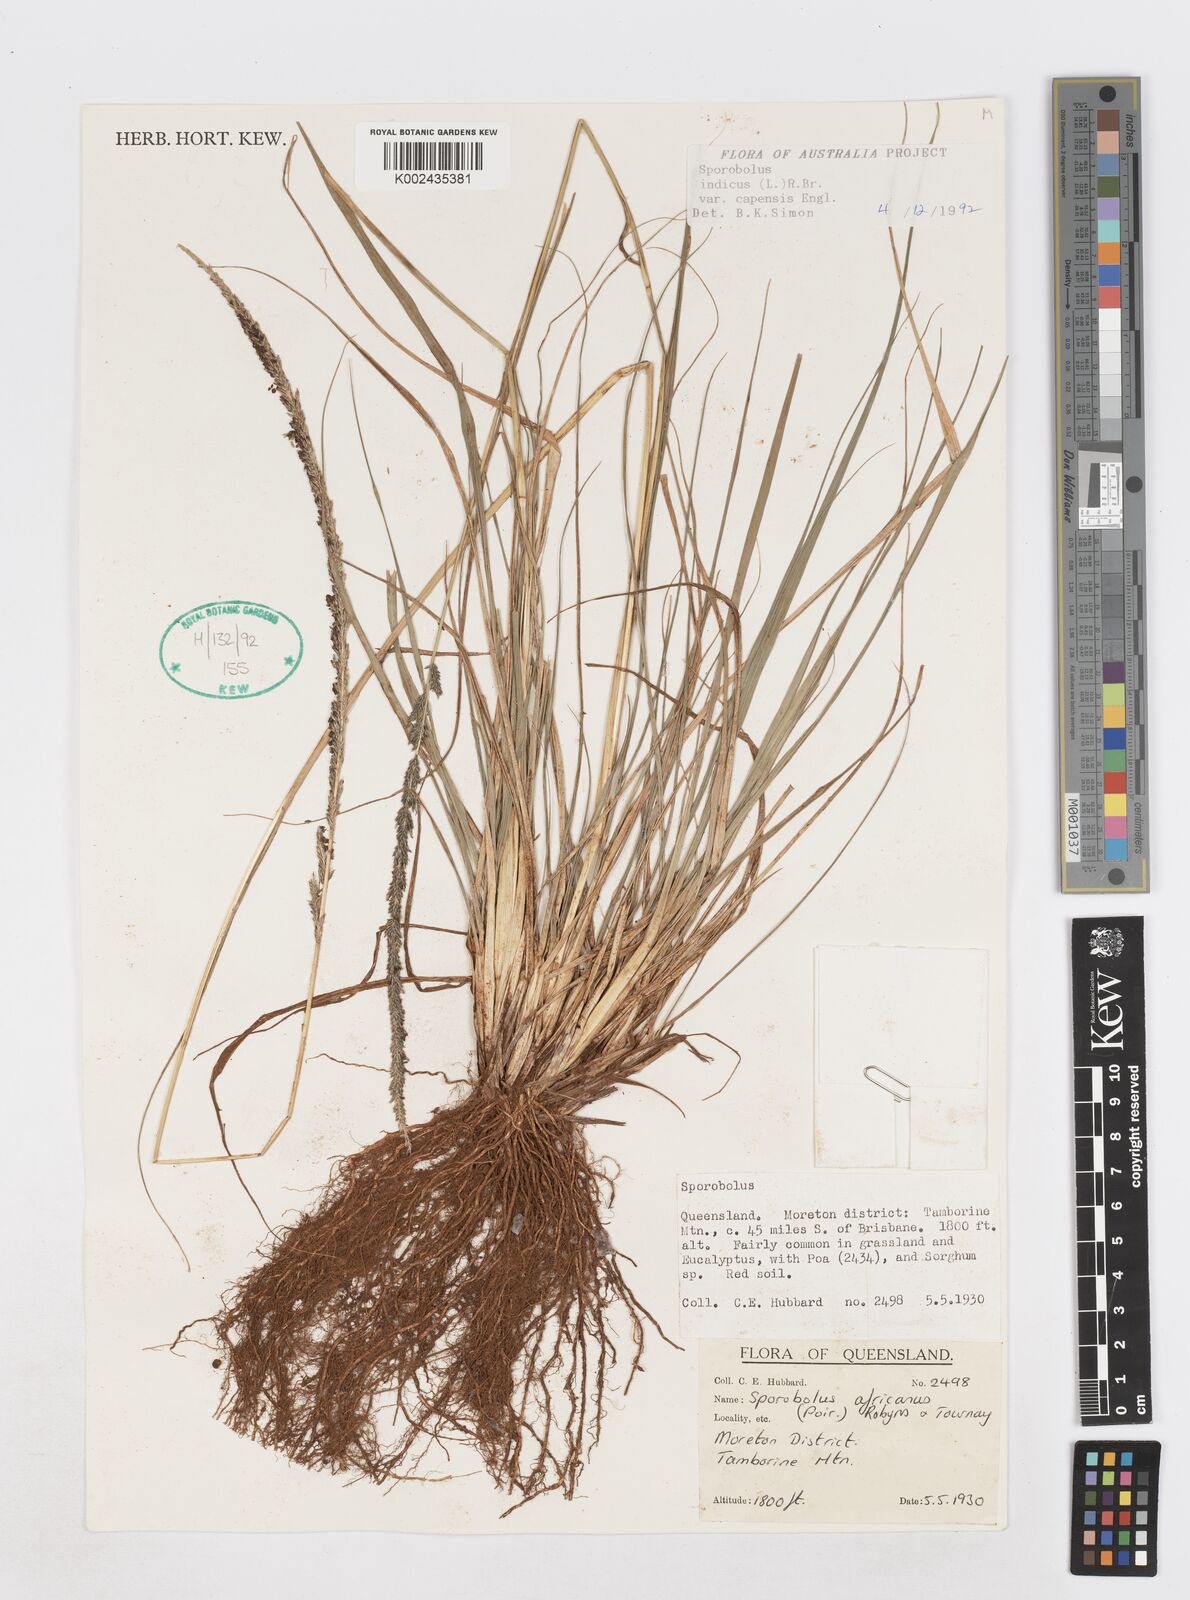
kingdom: Plantae
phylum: Tracheophyta
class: Liliopsida
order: Poales
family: Poaceae
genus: Sporobolus
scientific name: Sporobolus africanus
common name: African dropseed
